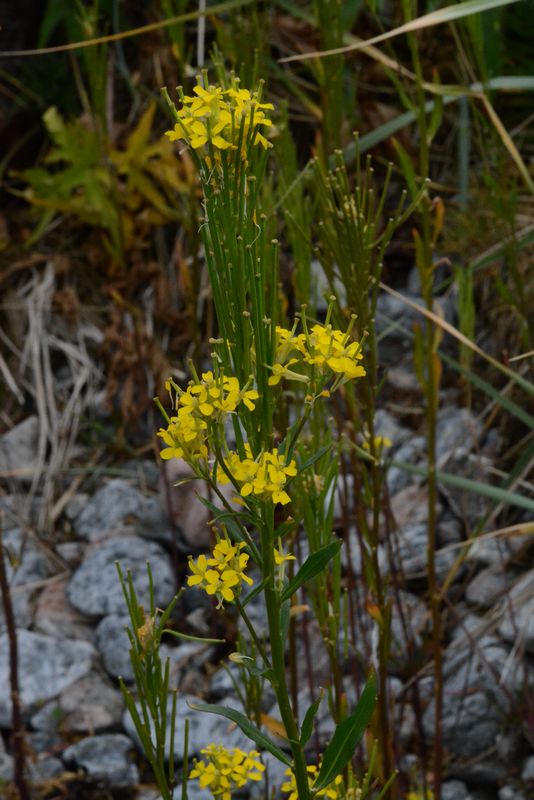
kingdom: Plantae
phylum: Tracheophyta
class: Magnoliopsida
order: Brassicales
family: Brassicaceae
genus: Erysimum
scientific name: Erysimum hieraciifolium
